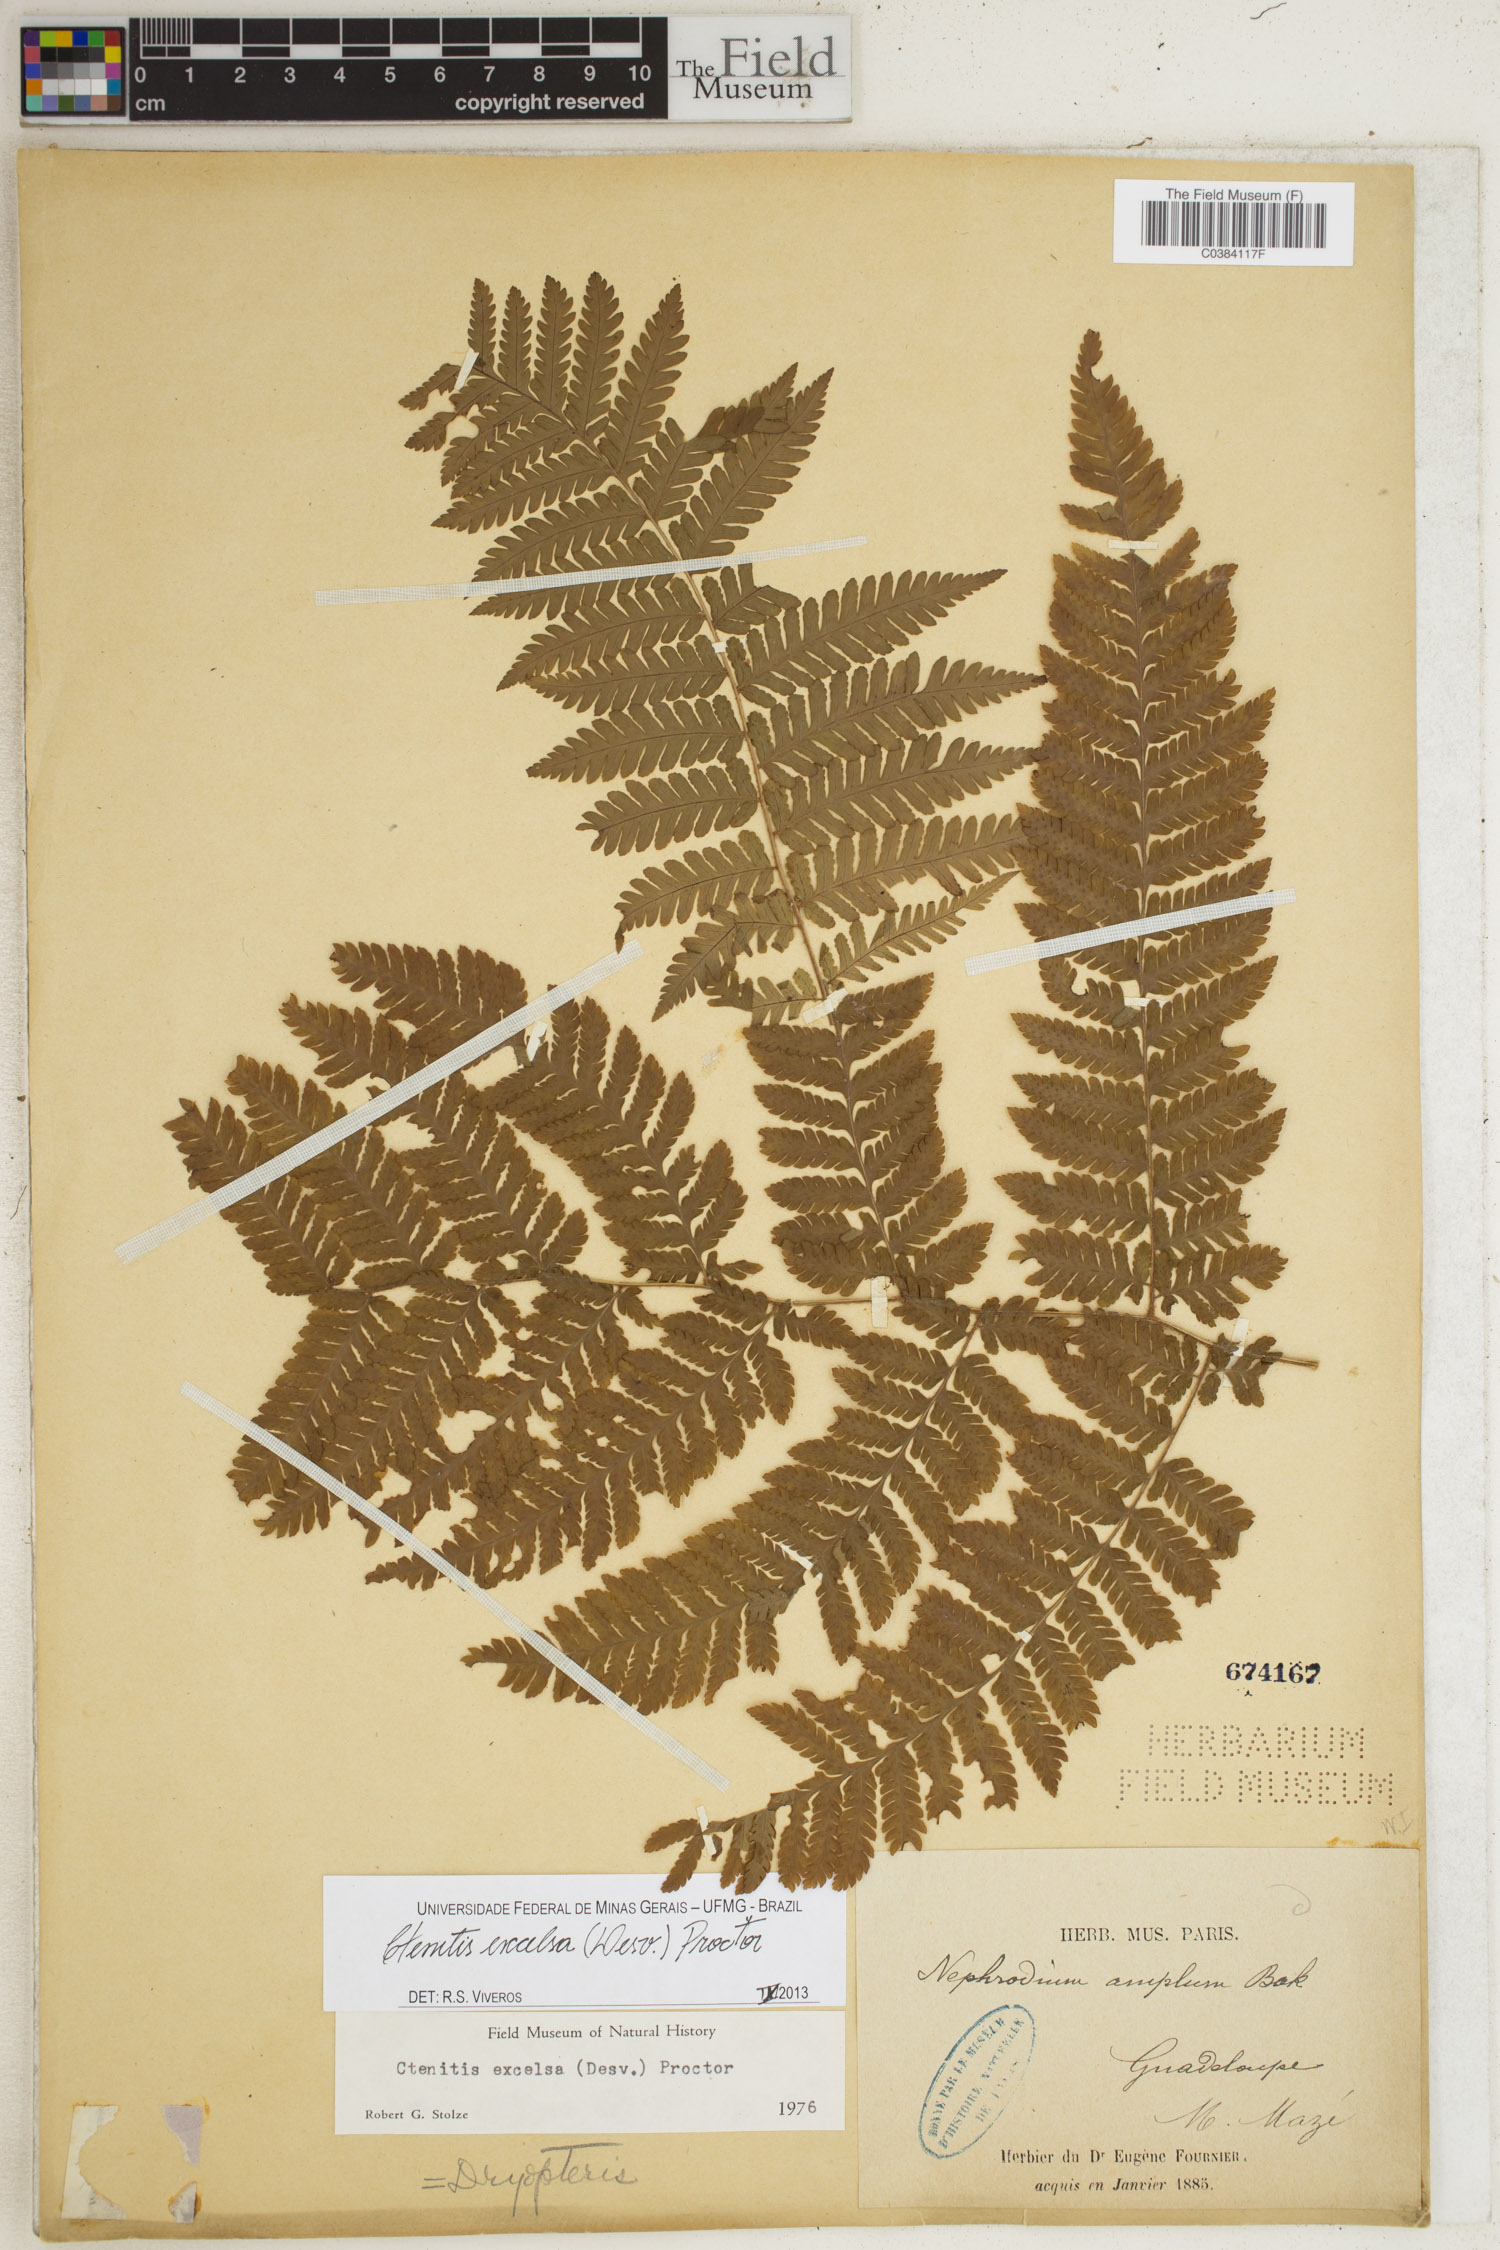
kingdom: Plantae
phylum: Tracheophyta
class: Polypodiopsida
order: Polypodiales
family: Dryopteridaceae
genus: Ctenitis
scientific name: Ctenitis excelsa
